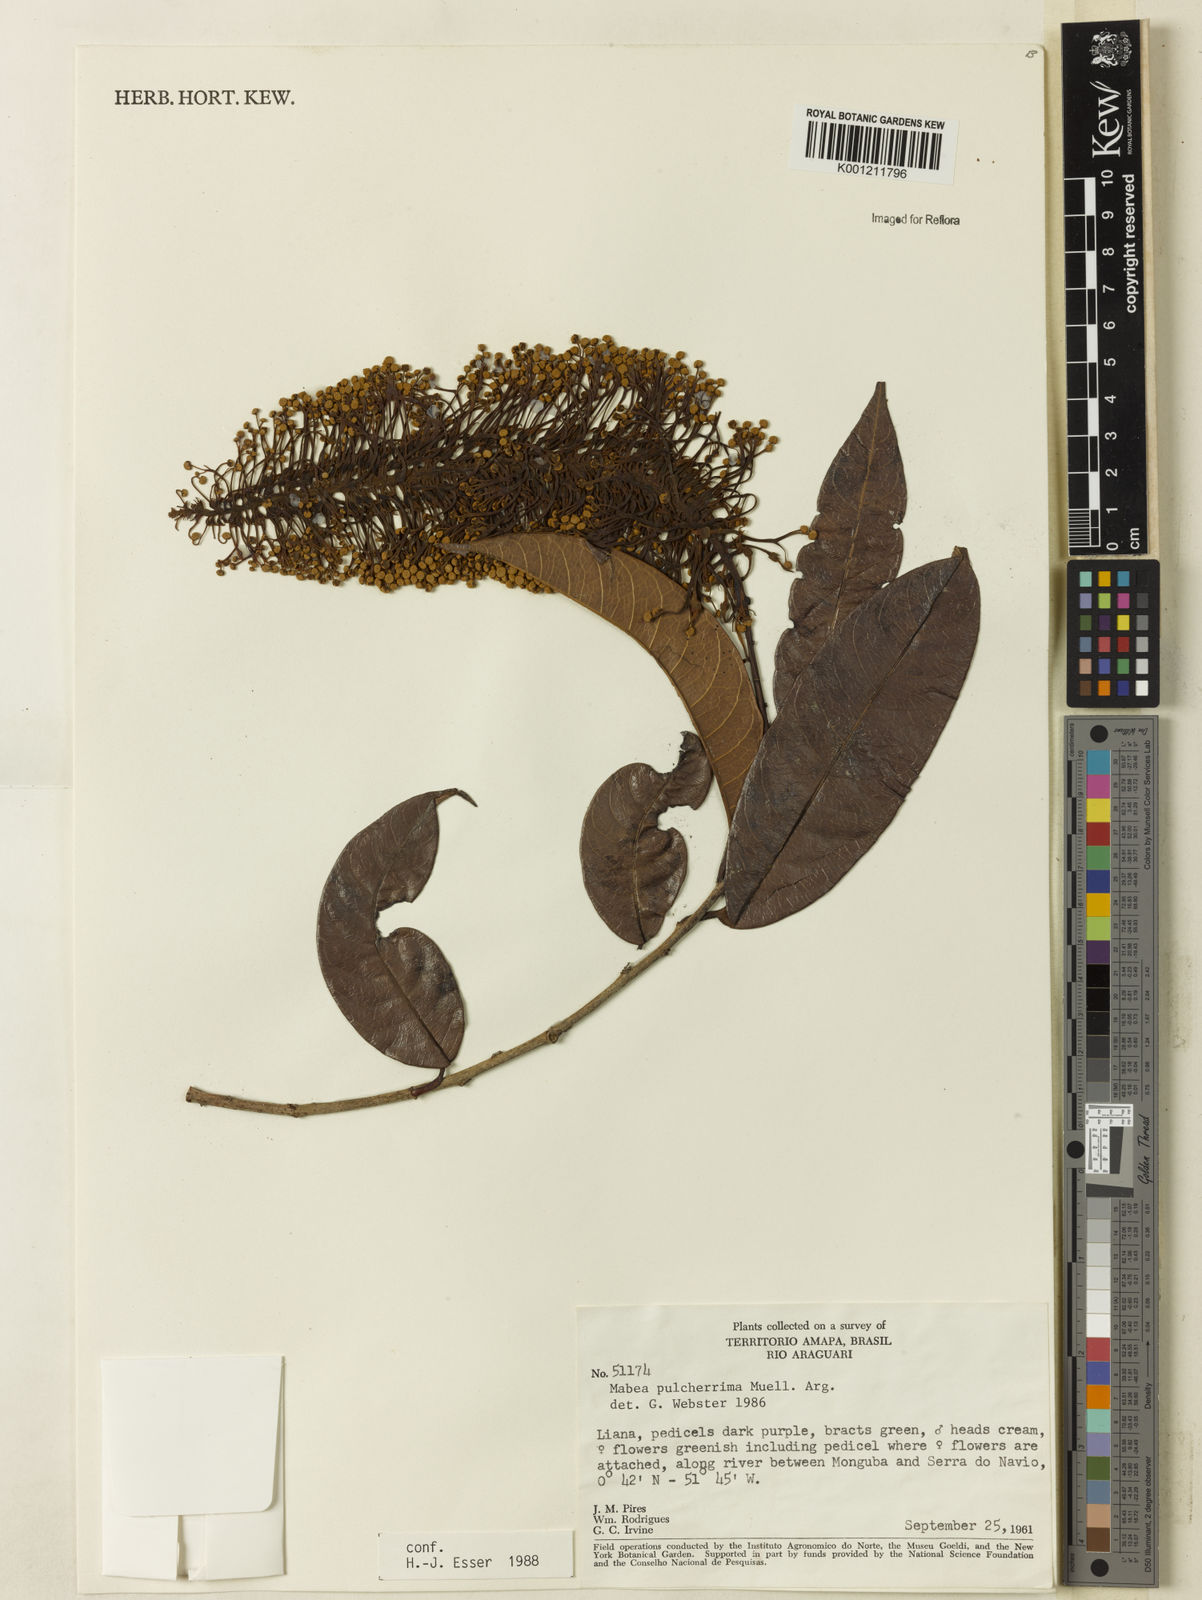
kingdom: Plantae
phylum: Tracheophyta
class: Magnoliopsida
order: Malpighiales
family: Euphorbiaceae
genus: Mabea
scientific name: Mabea
